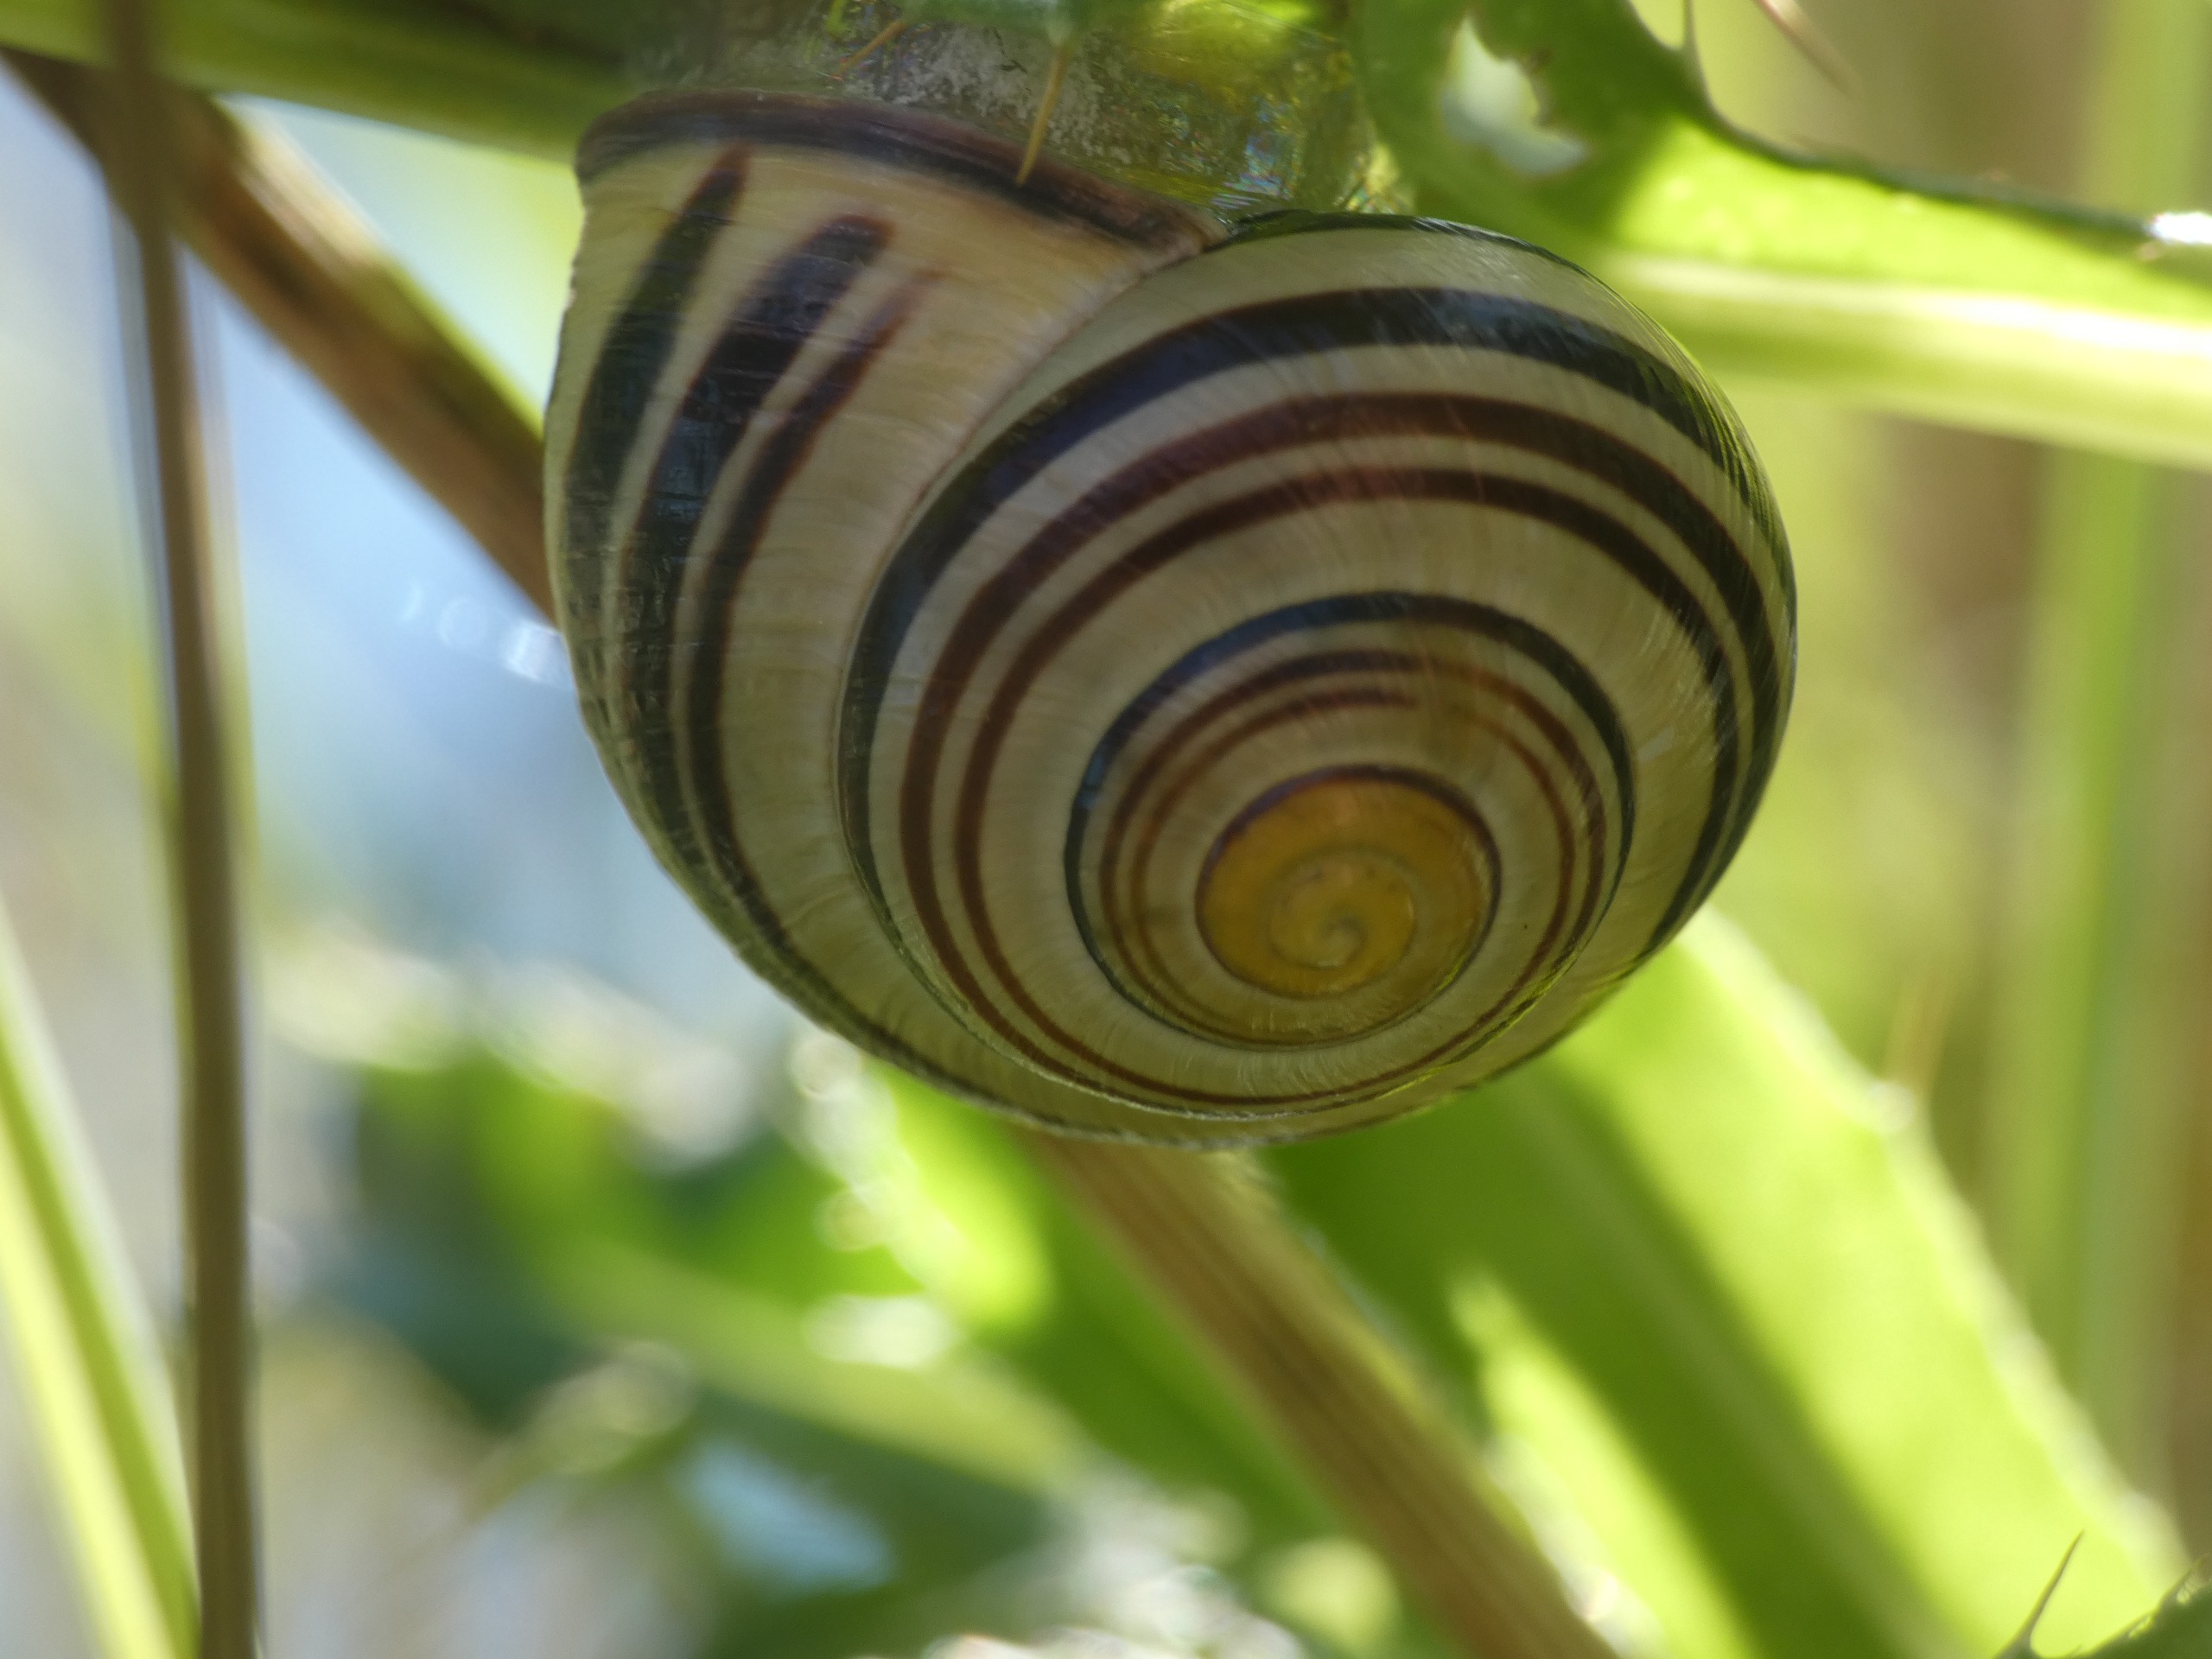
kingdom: Animalia
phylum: Mollusca
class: Gastropoda
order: Stylommatophora
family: Helicidae
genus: Cepaea
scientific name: Cepaea nemoralis
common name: Lundsnegl
